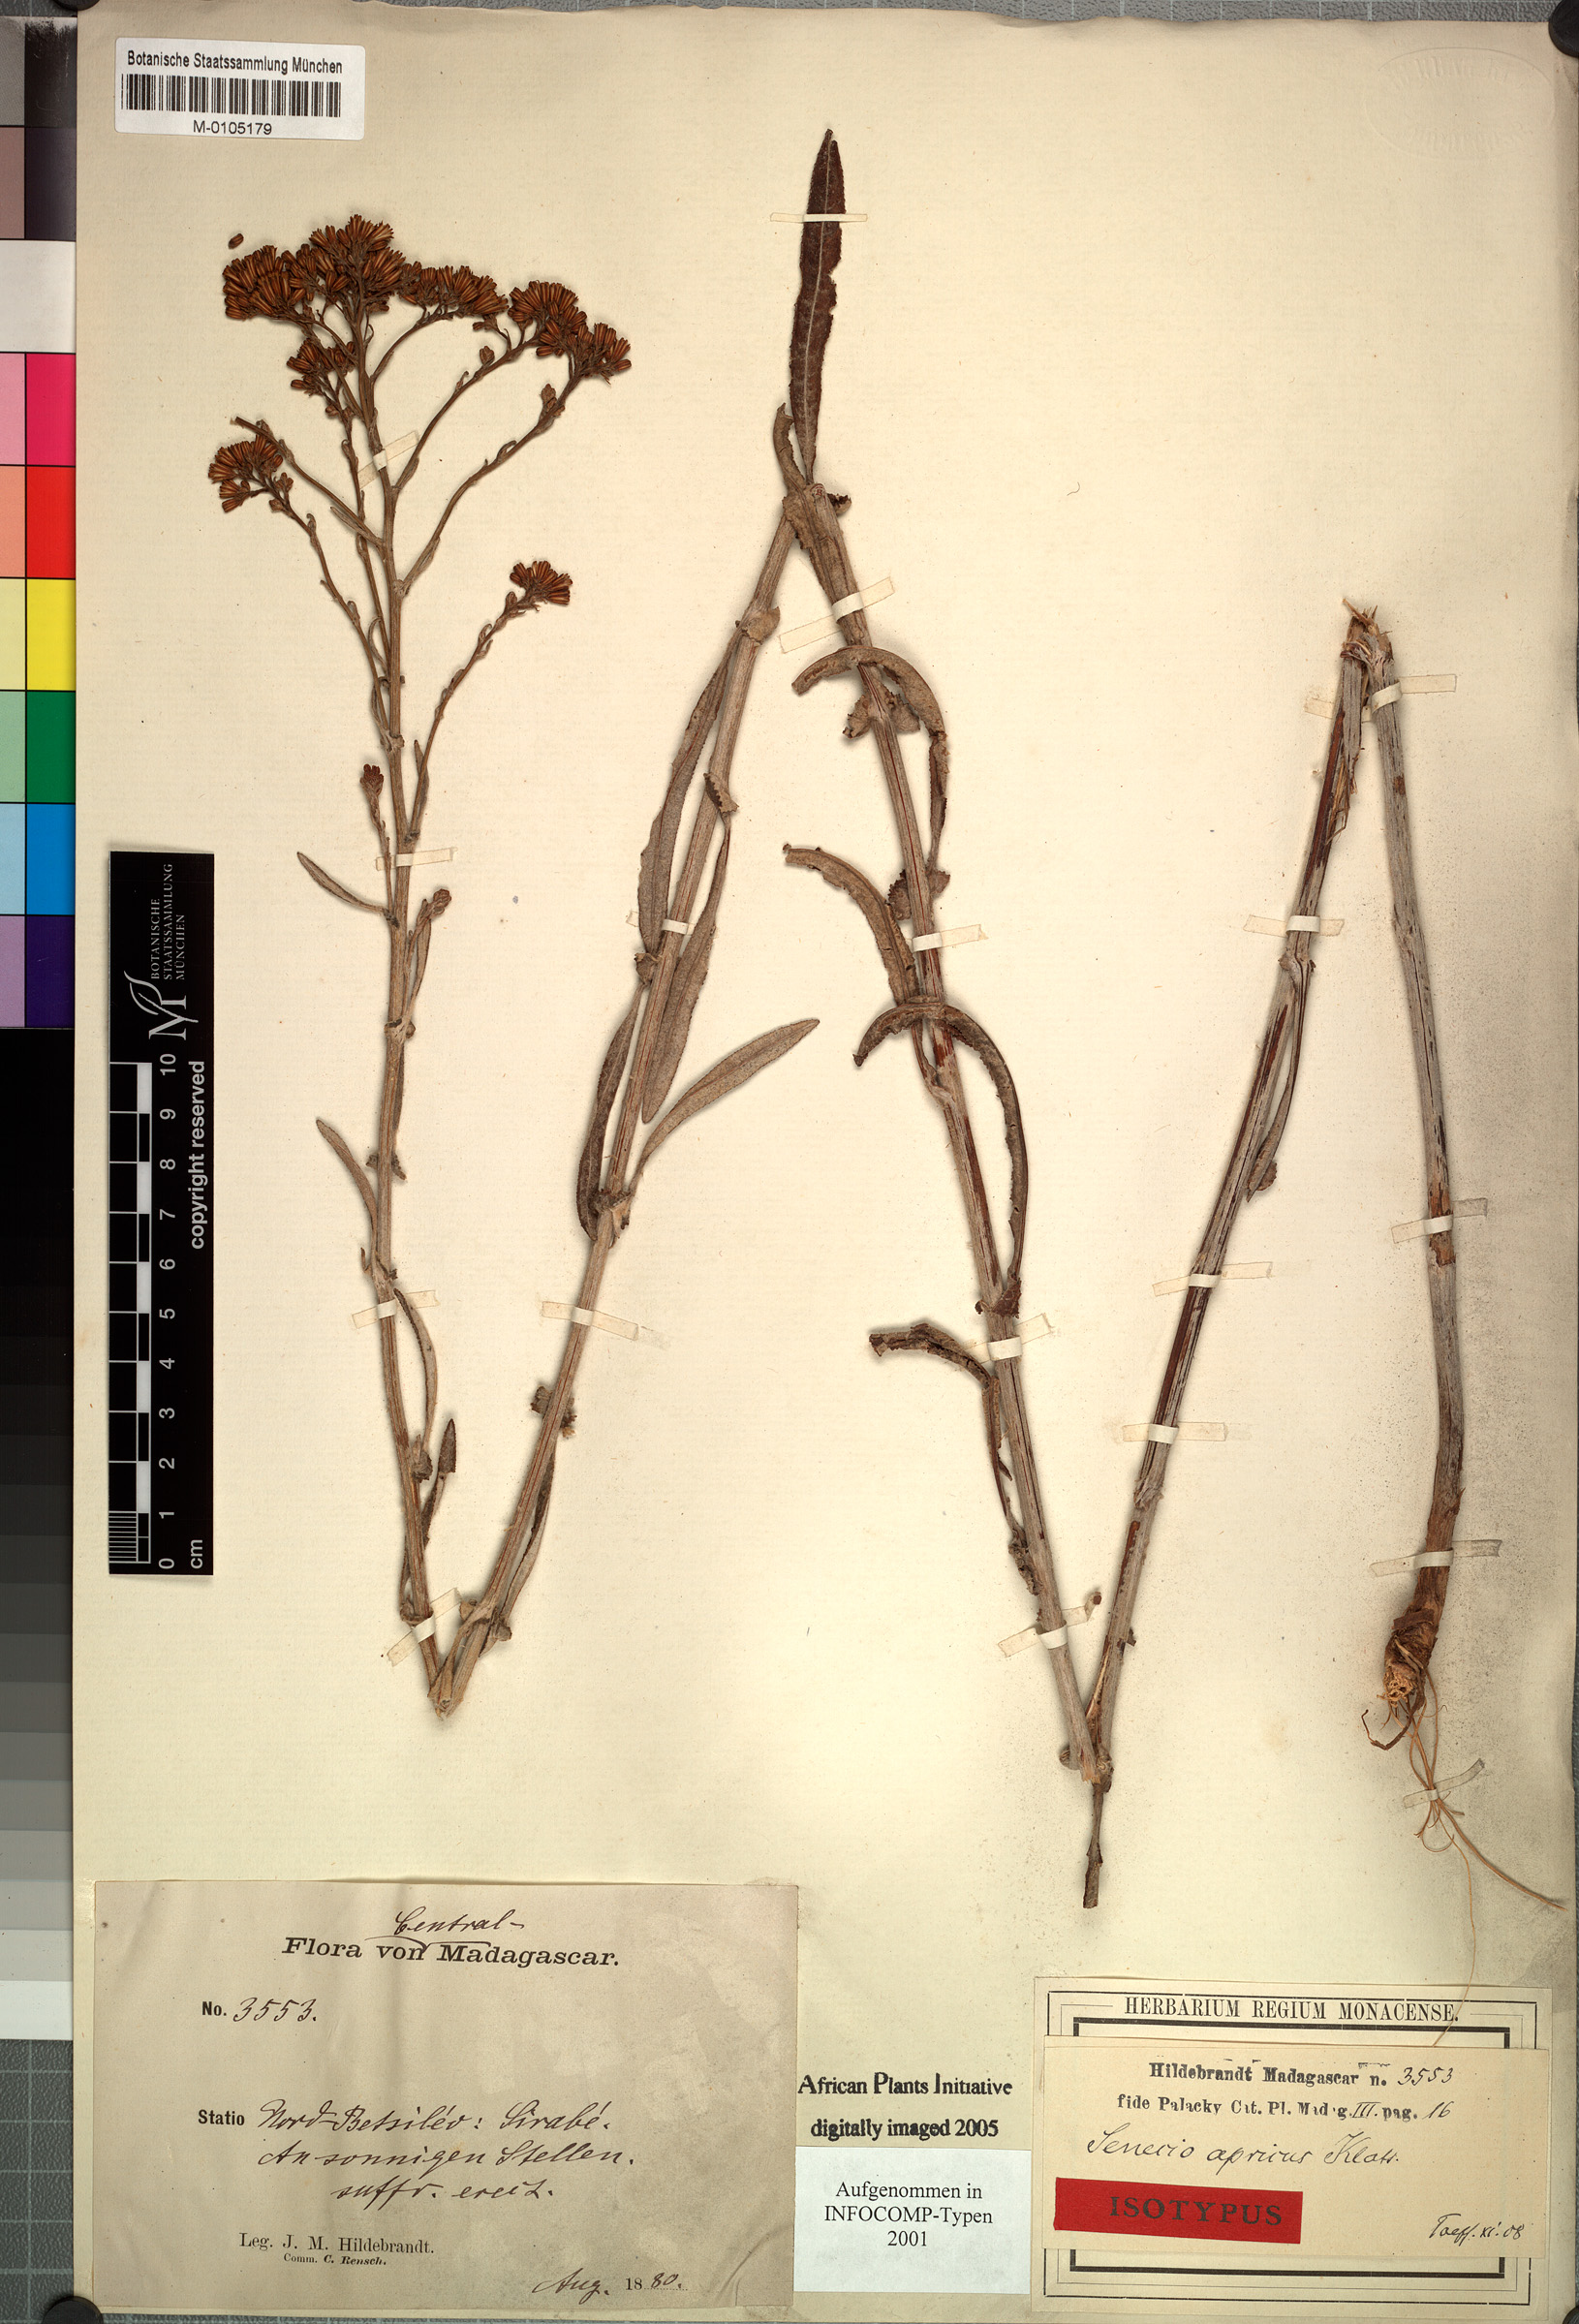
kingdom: Plantae
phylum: Tracheophyta
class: Magnoliopsida
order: Asterales
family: Asteraceae
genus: Senecio
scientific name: Senecio longiscapus
